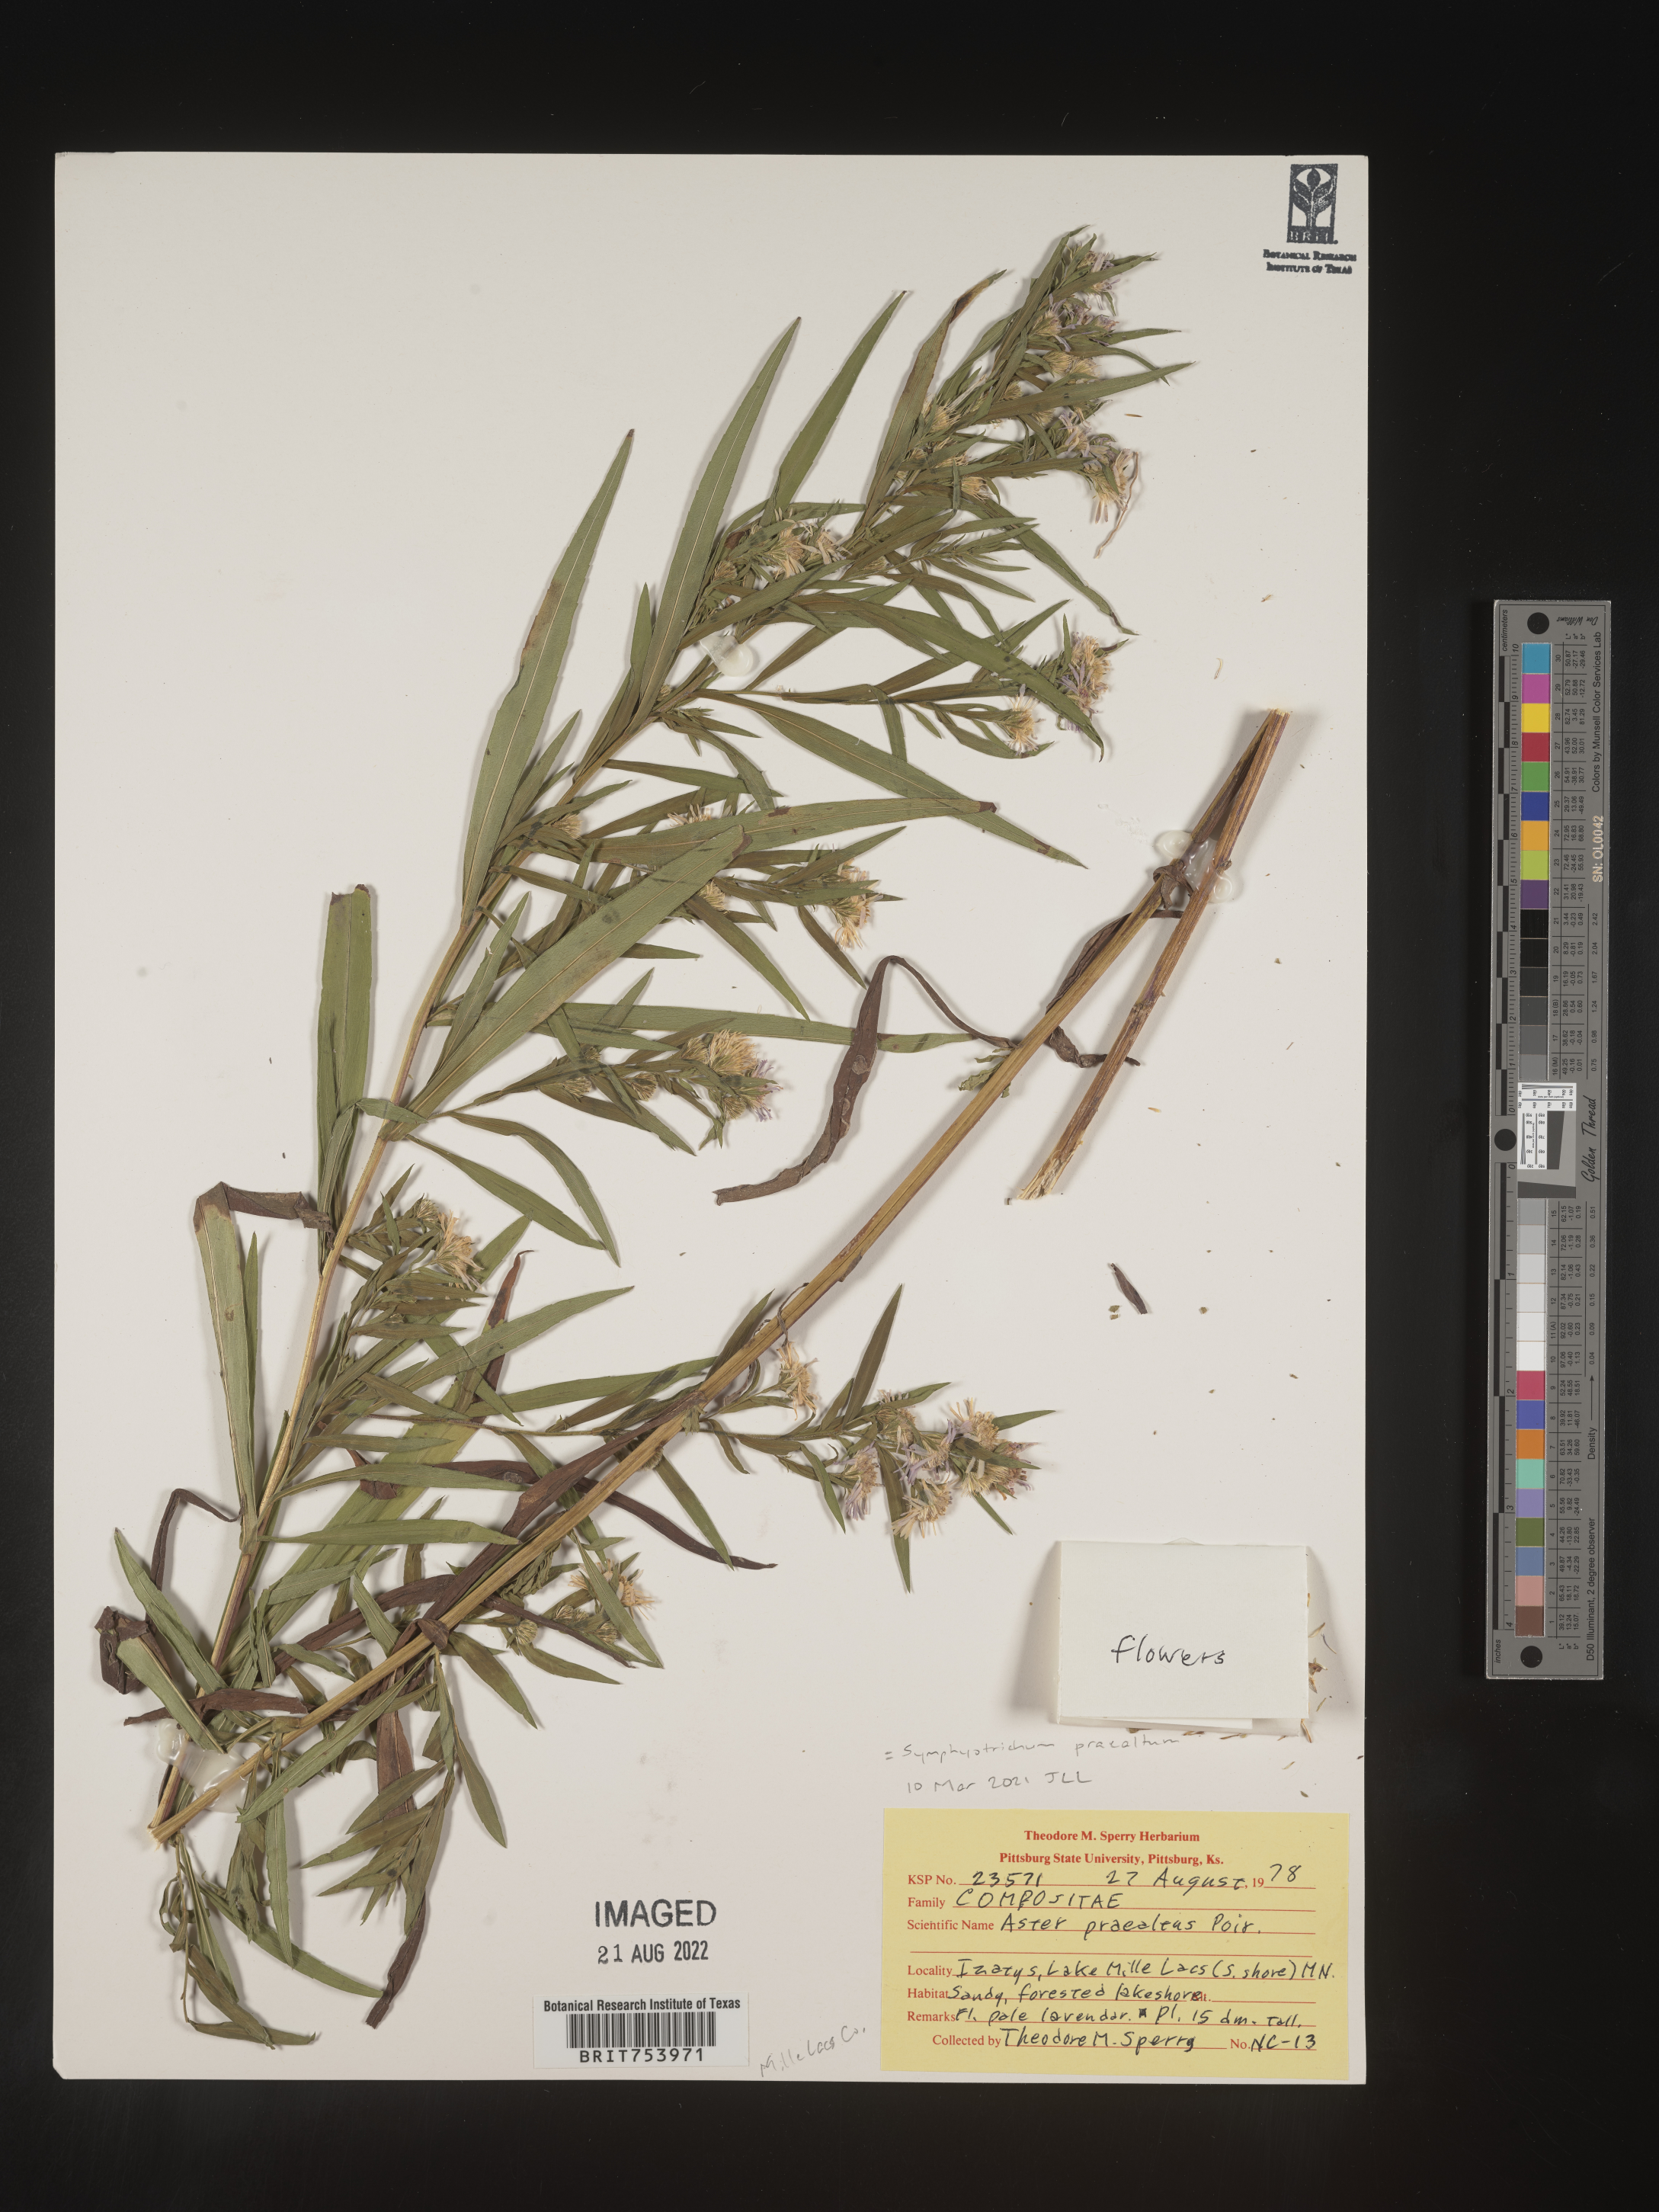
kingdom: Plantae
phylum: Tracheophyta
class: Magnoliopsida
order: Asterales
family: Asteraceae
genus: Symphyotrichum
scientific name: Symphyotrichum praealtum
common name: Willow aster
